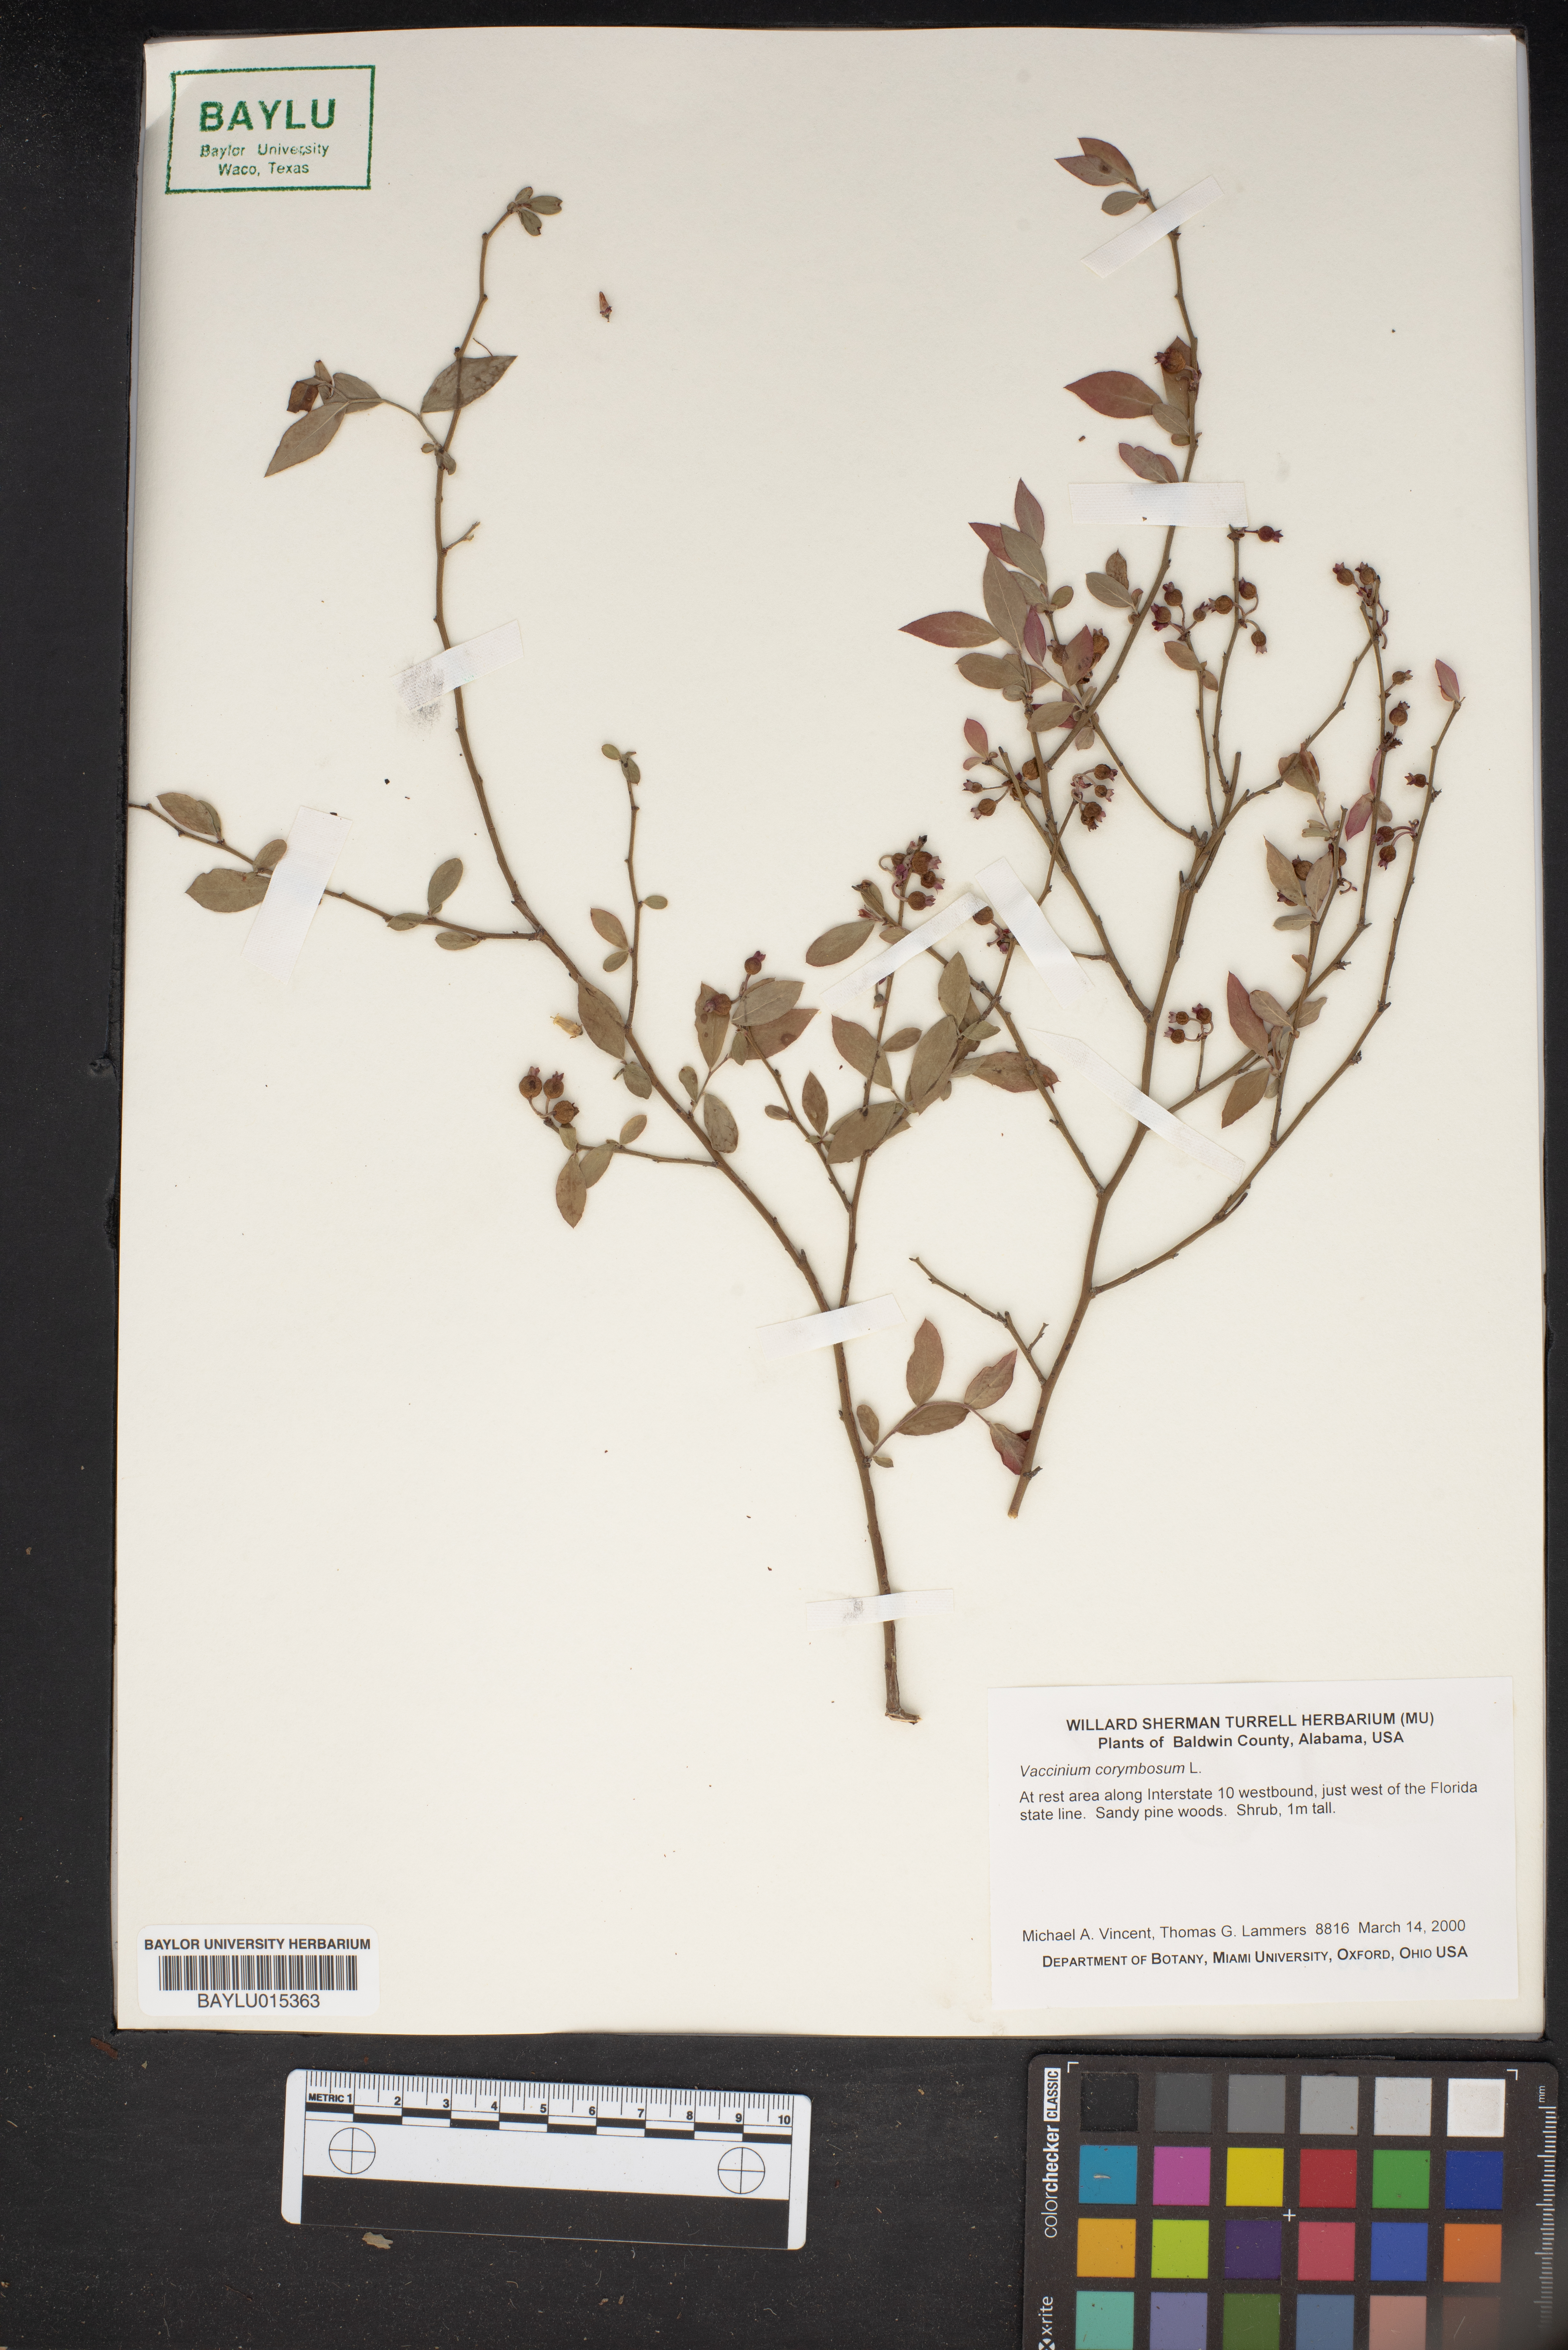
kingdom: Plantae
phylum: Tracheophyta
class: Magnoliopsida
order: Ericales
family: Ericaceae
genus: Vaccinium
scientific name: Vaccinium corymbosum
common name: Blueberry
